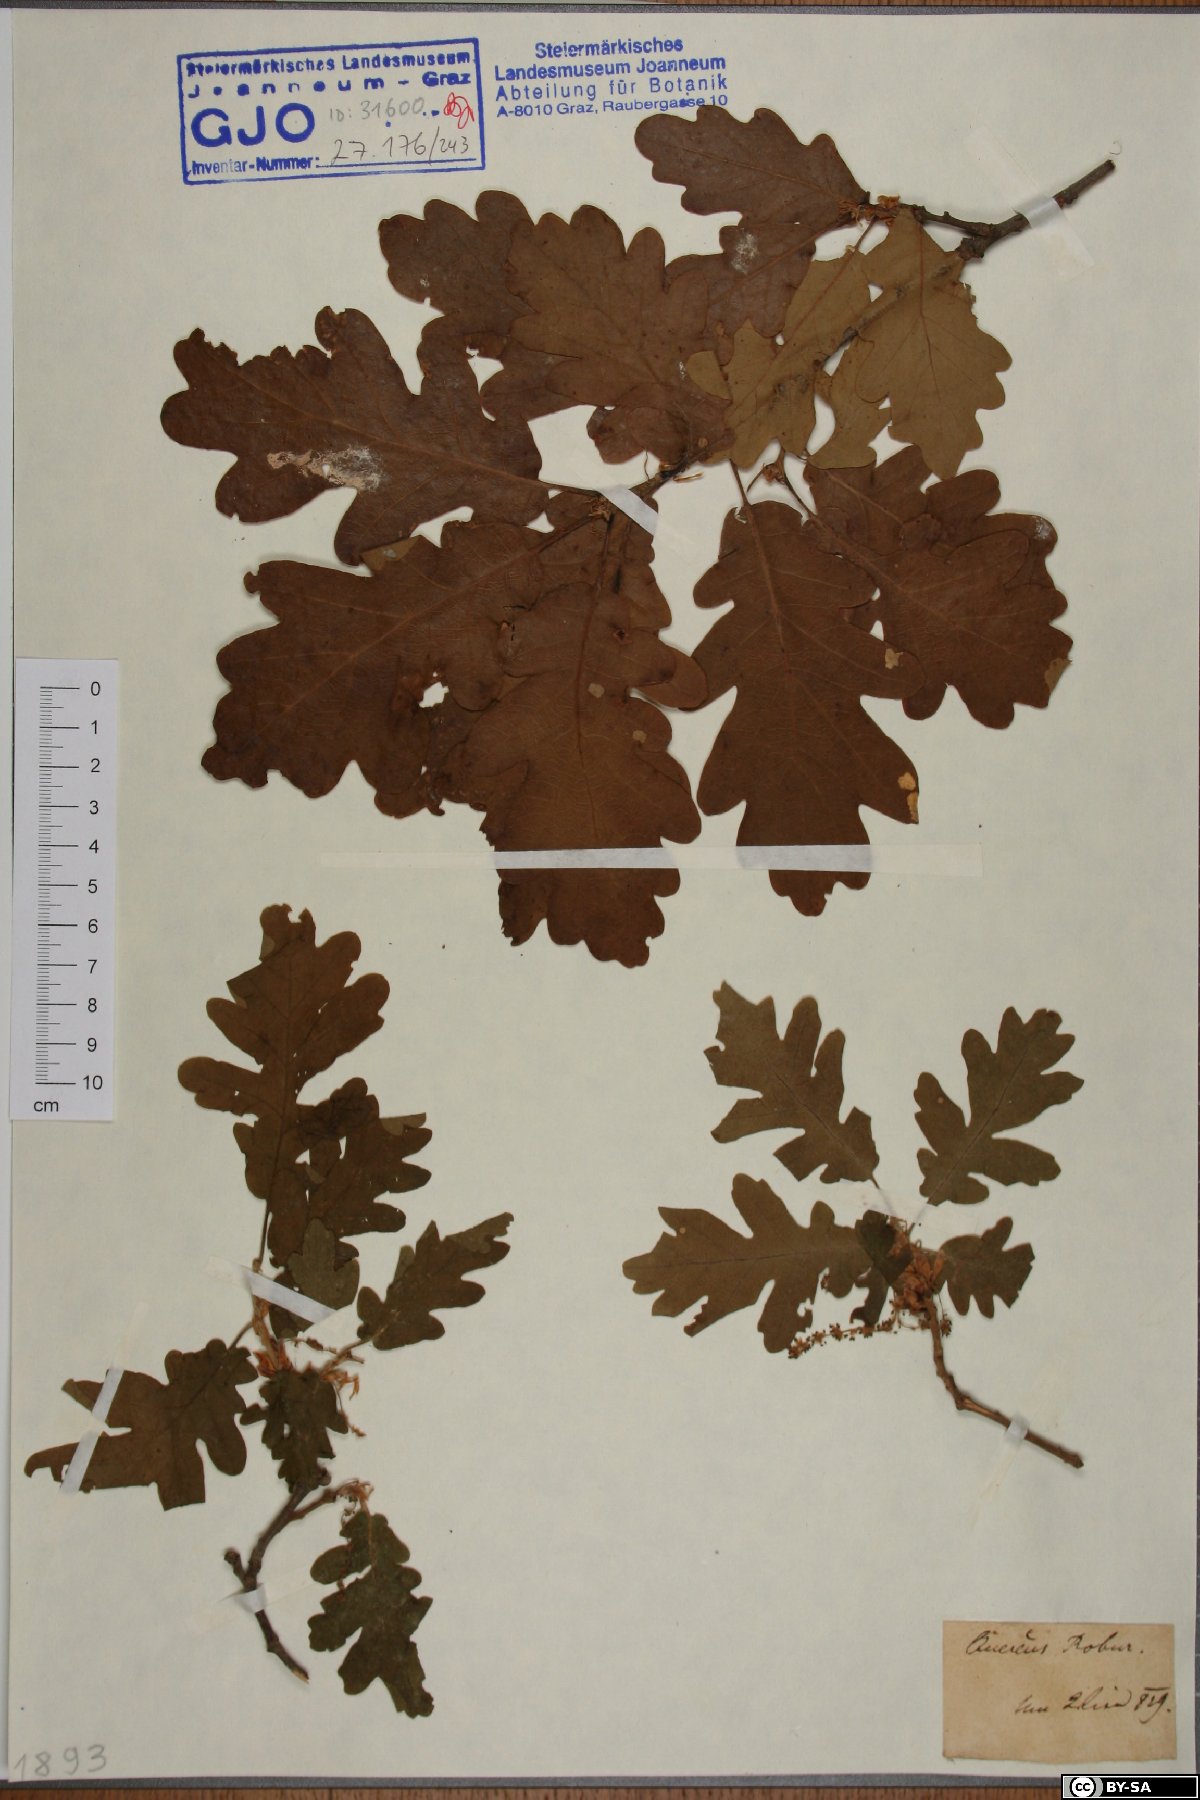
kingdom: Plantae
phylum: Tracheophyta
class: Magnoliopsida
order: Fagales
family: Fagaceae
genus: Quercus
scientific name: Quercus robur
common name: Pedunculate oak
